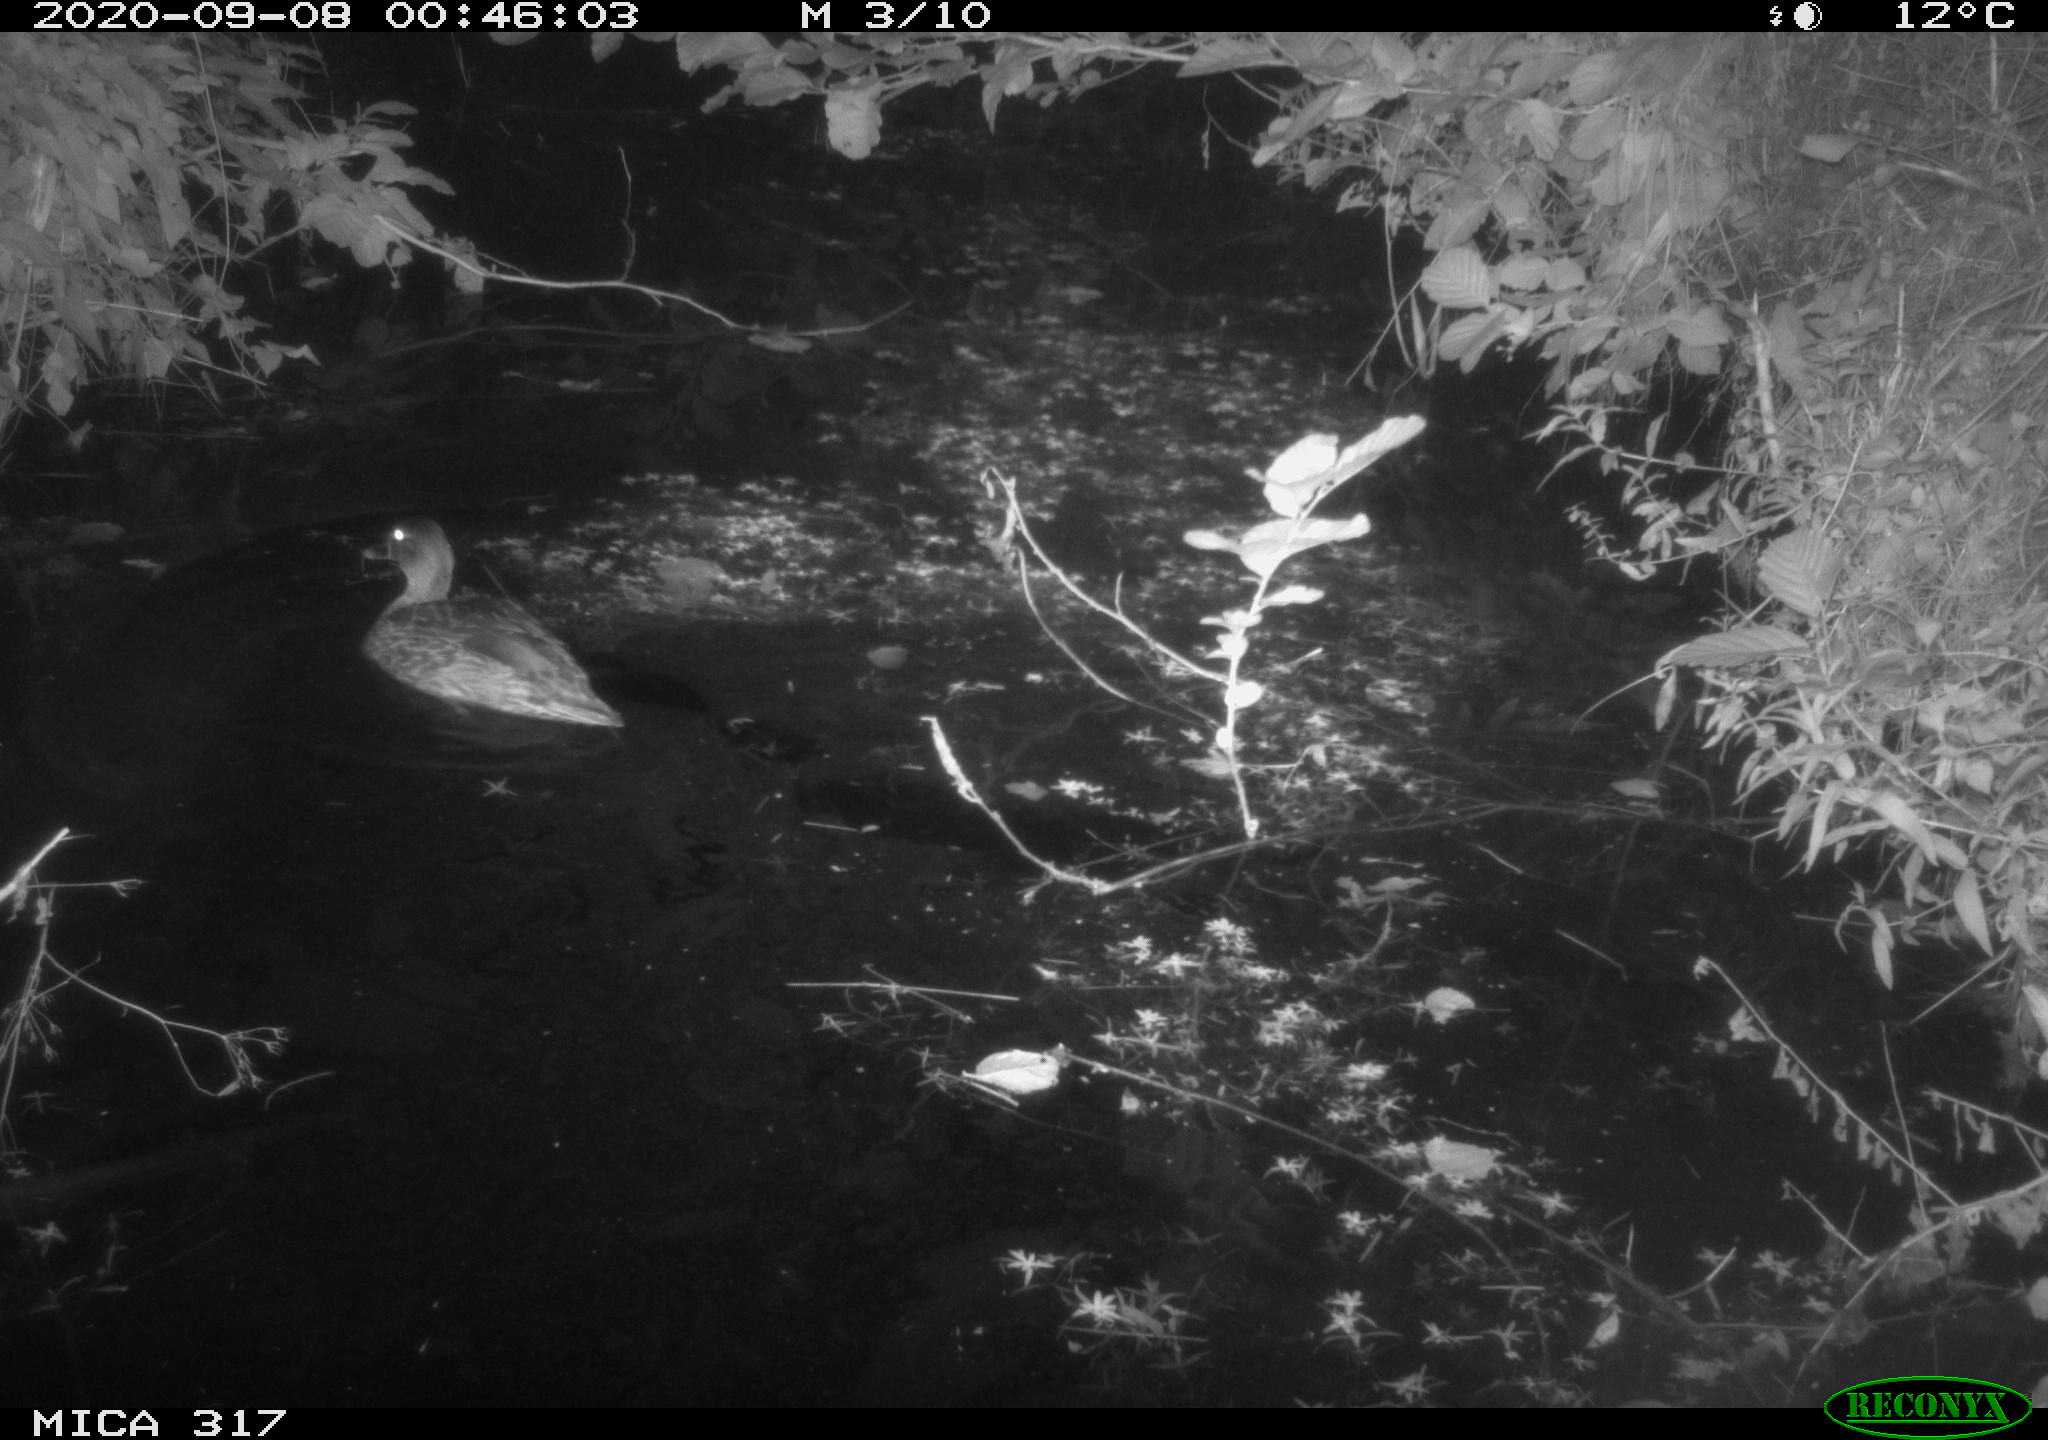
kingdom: Animalia
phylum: Chordata
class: Aves
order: Anseriformes
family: Anatidae
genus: Anas
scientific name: Anas platyrhynchos
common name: Mallard
